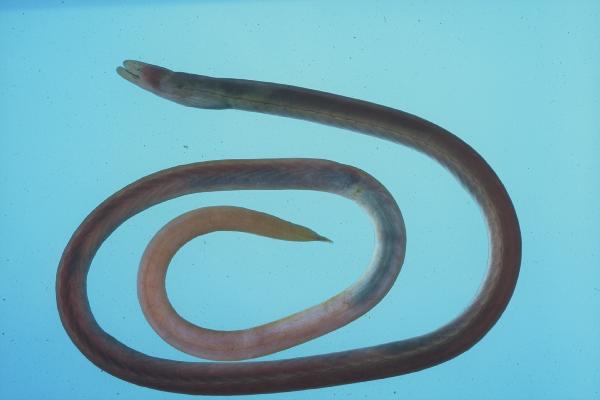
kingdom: Animalia
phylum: Chordata
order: Anguilliformes
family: Moringuidae
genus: Moringua
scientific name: Moringua
